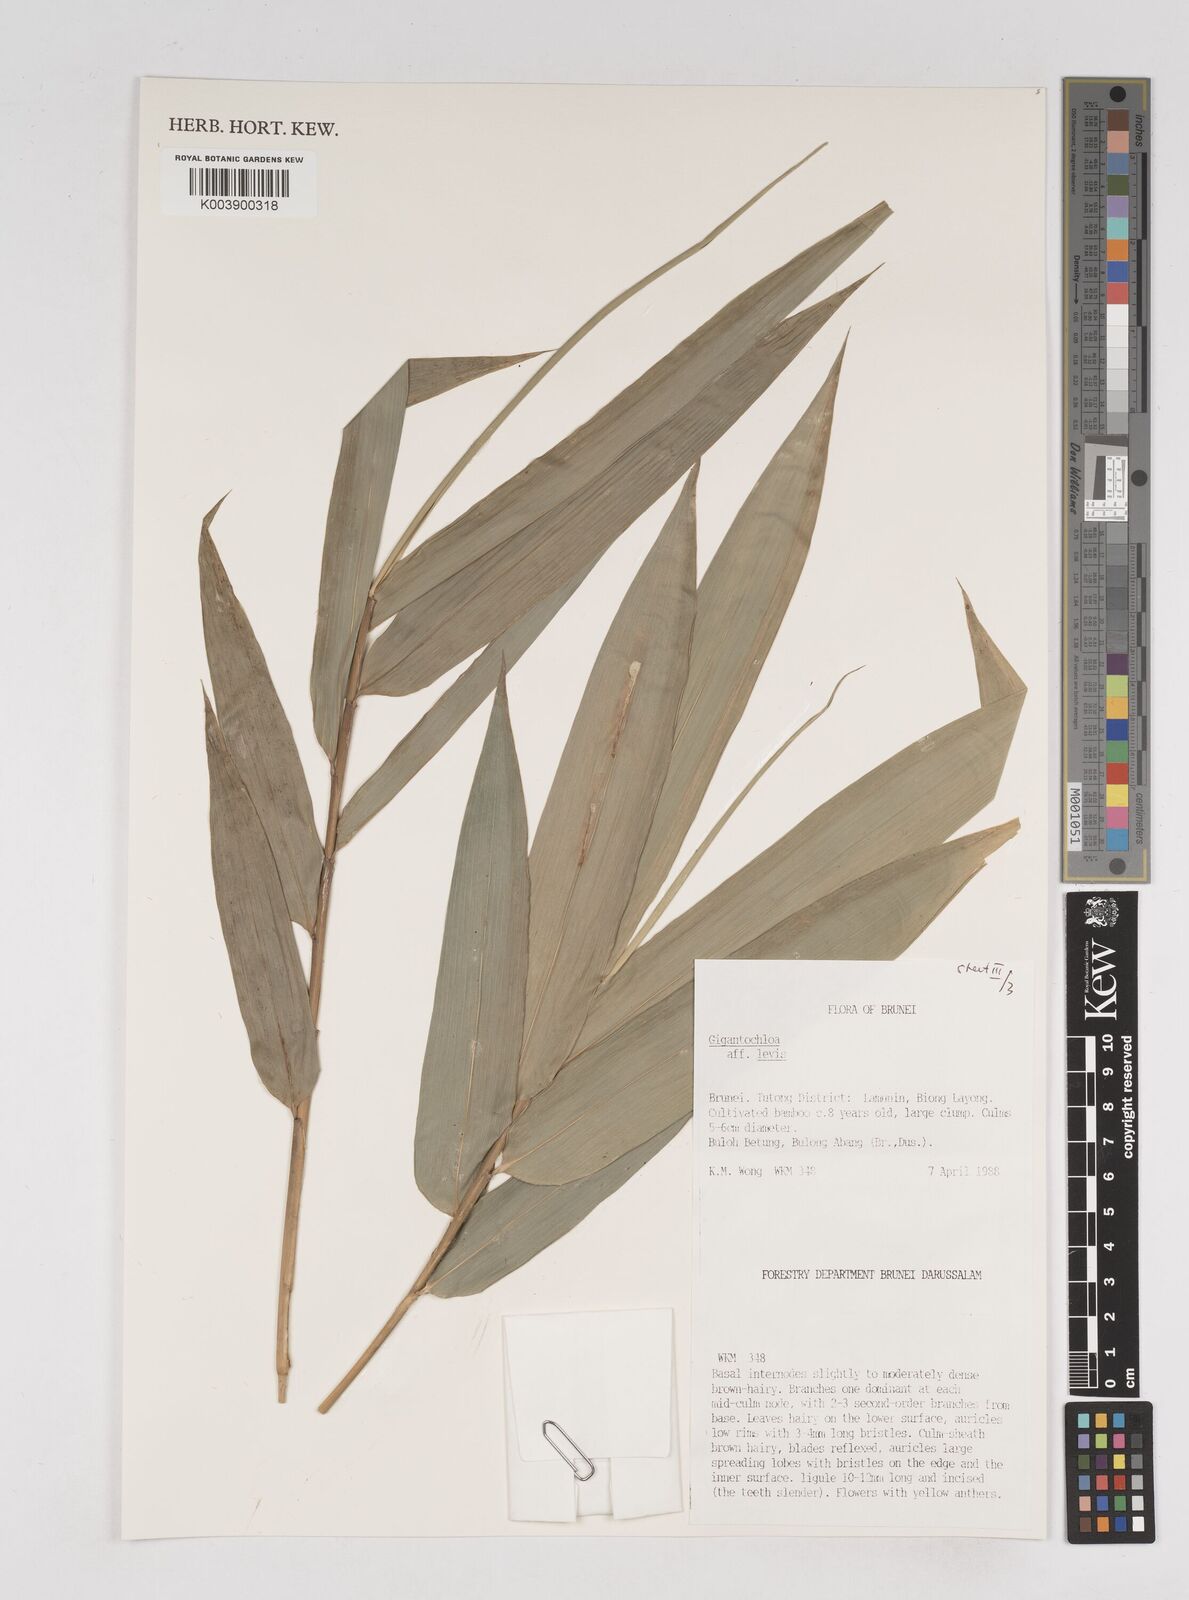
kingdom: Plantae
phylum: Tracheophyta
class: Liliopsida
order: Poales
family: Poaceae
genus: Gigantochloa
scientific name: Gigantochloa levis
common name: Smooth-shoot gigantochloa
